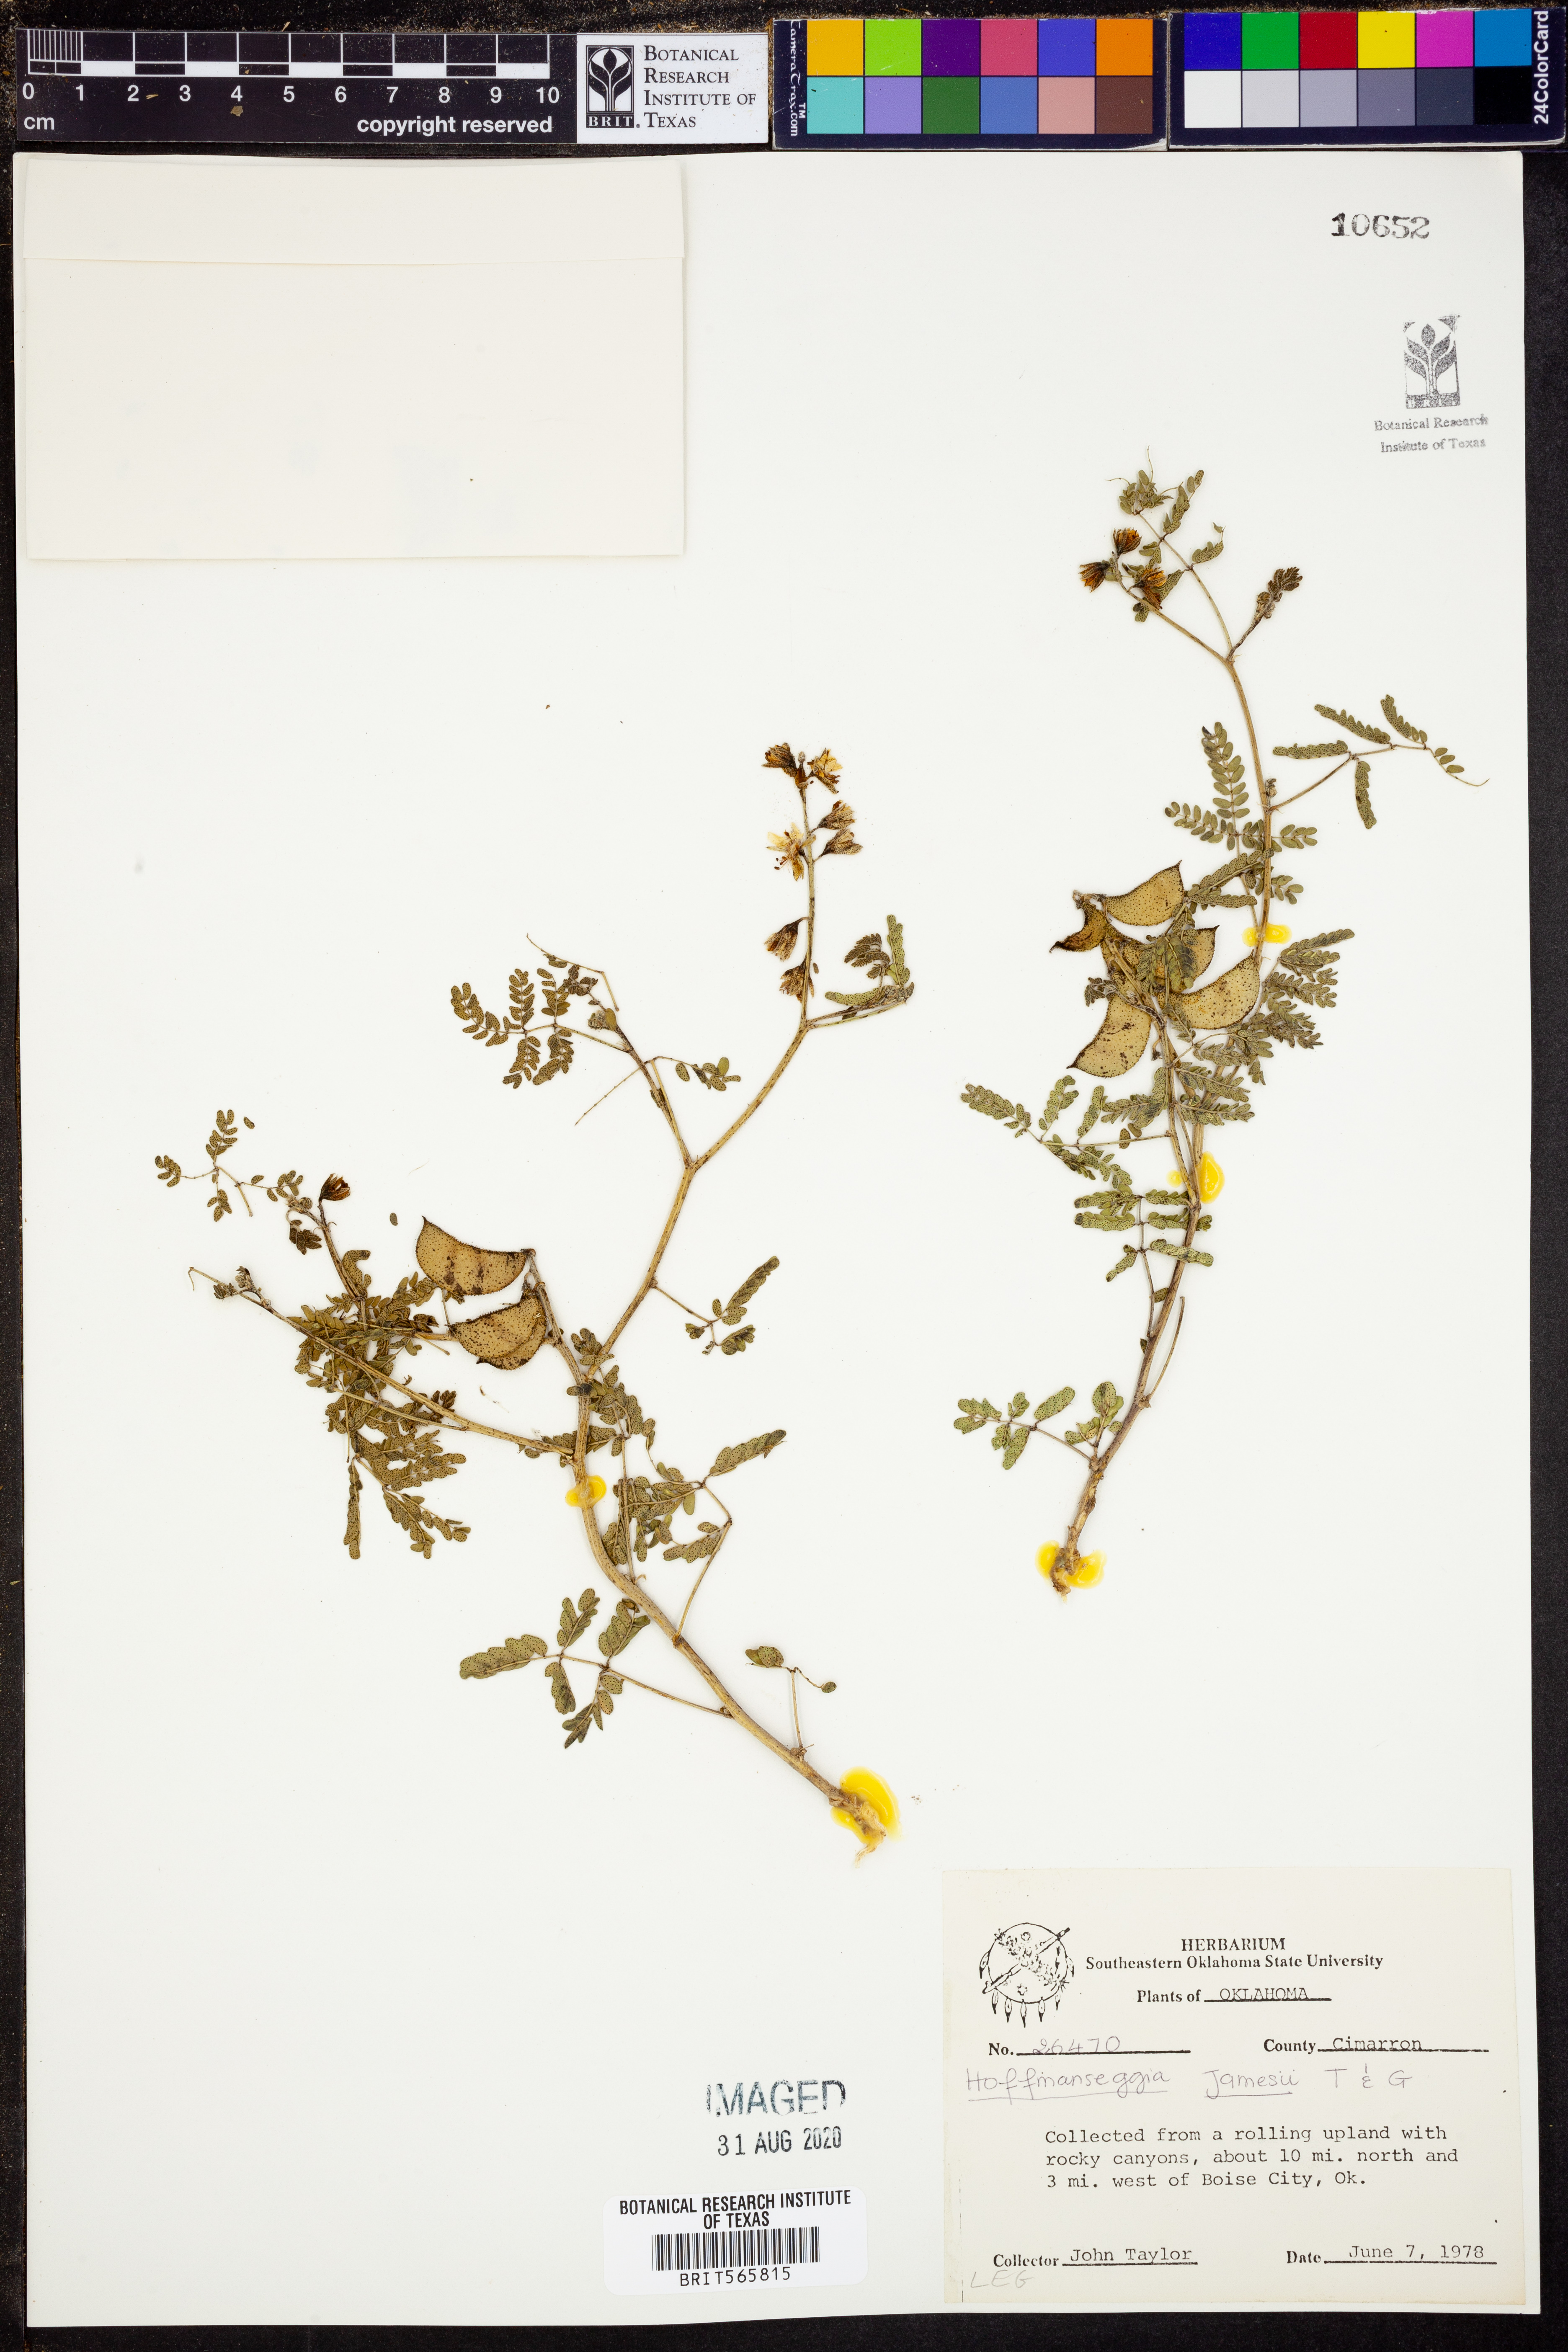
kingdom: Plantae
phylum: Tracheophyta
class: Magnoliopsida
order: Fabales
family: Fabaceae
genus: Pomaria
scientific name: Pomaria jamesii
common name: James' caesalpinia
